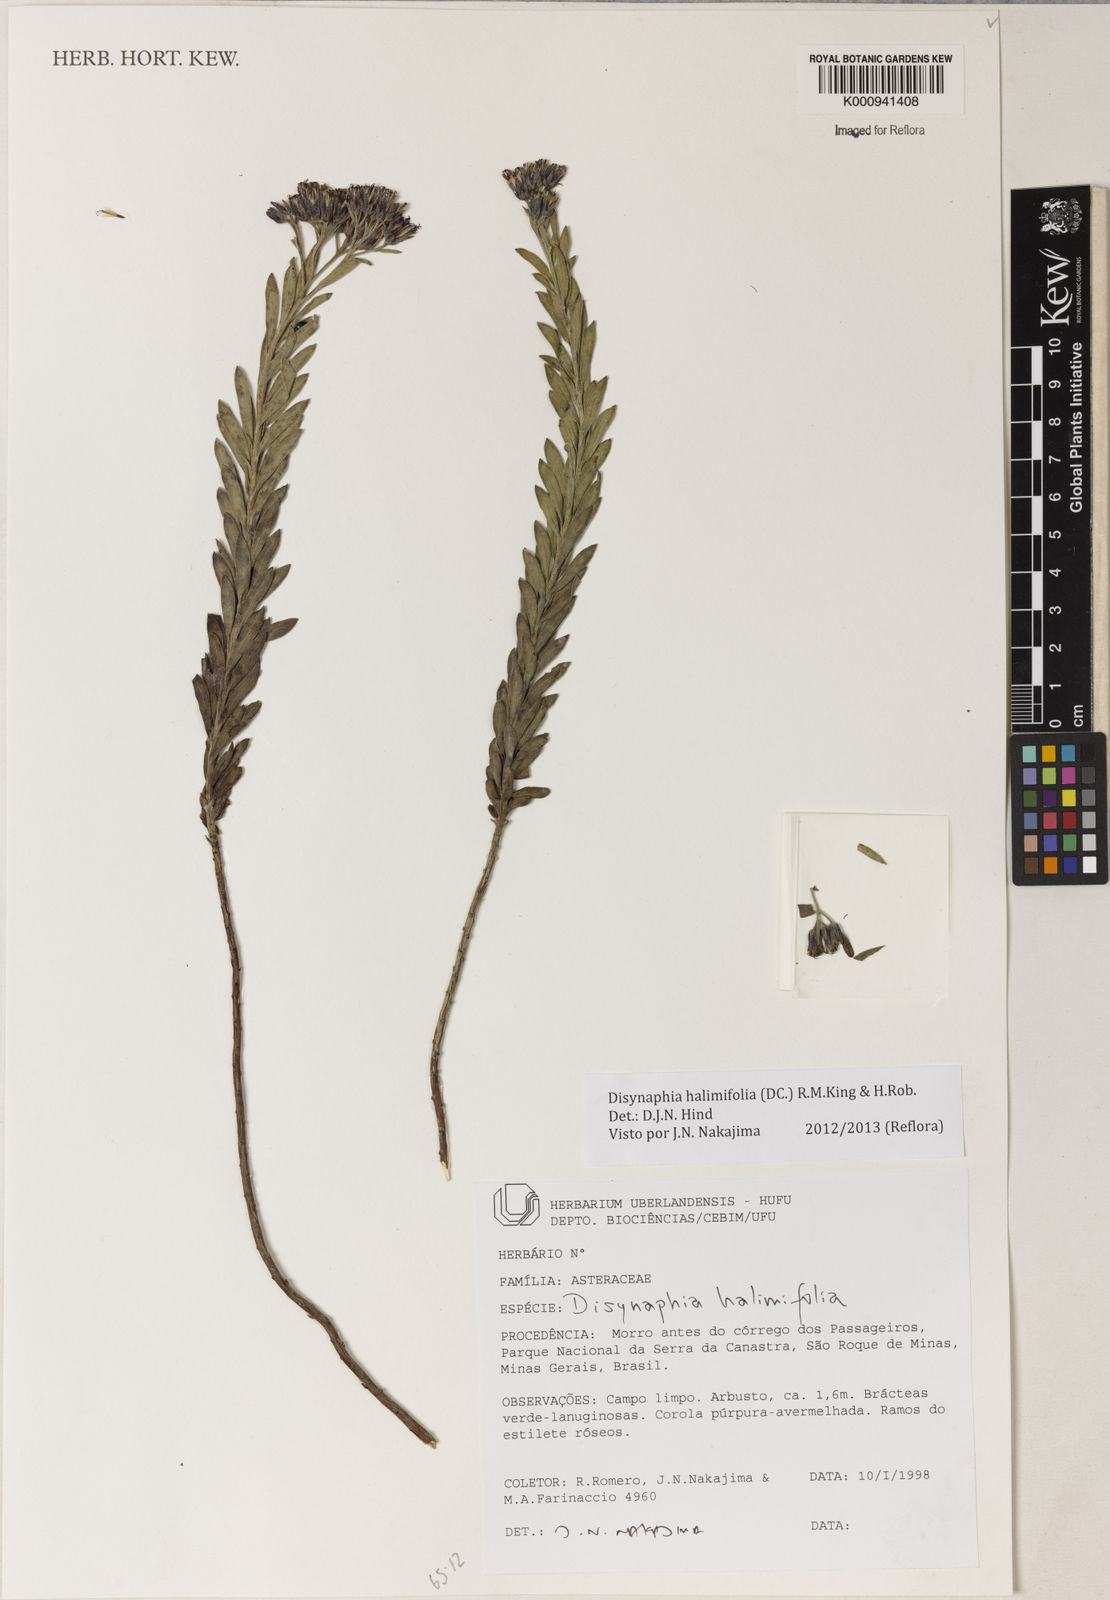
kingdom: Plantae
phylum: Tracheophyta
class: Magnoliopsida
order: Asterales
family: Asteraceae
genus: Disynaphia
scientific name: Disynaphia halimifolia
